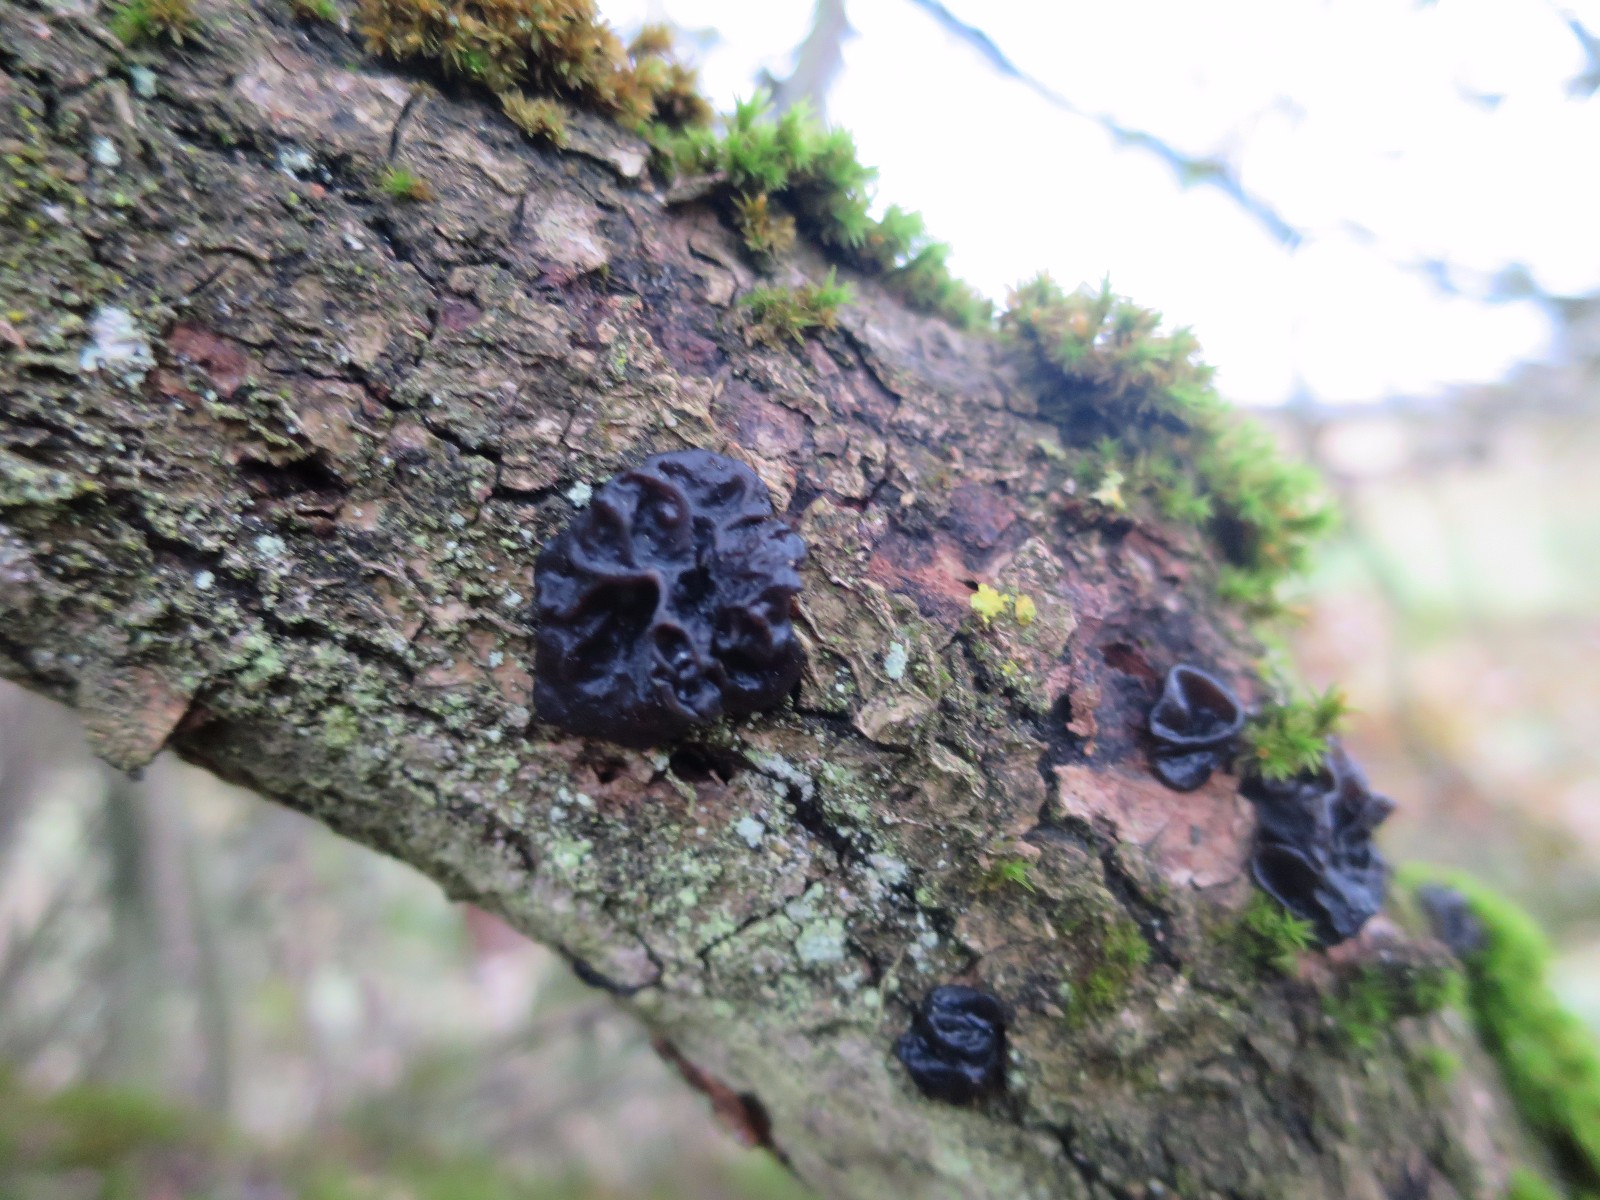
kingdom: Fungi
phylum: Basidiomycota
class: Agaricomycetes
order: Auriculariales
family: Auriculariaceae
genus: Exidia
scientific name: Exidia glandulosa
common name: ege-bævretop
